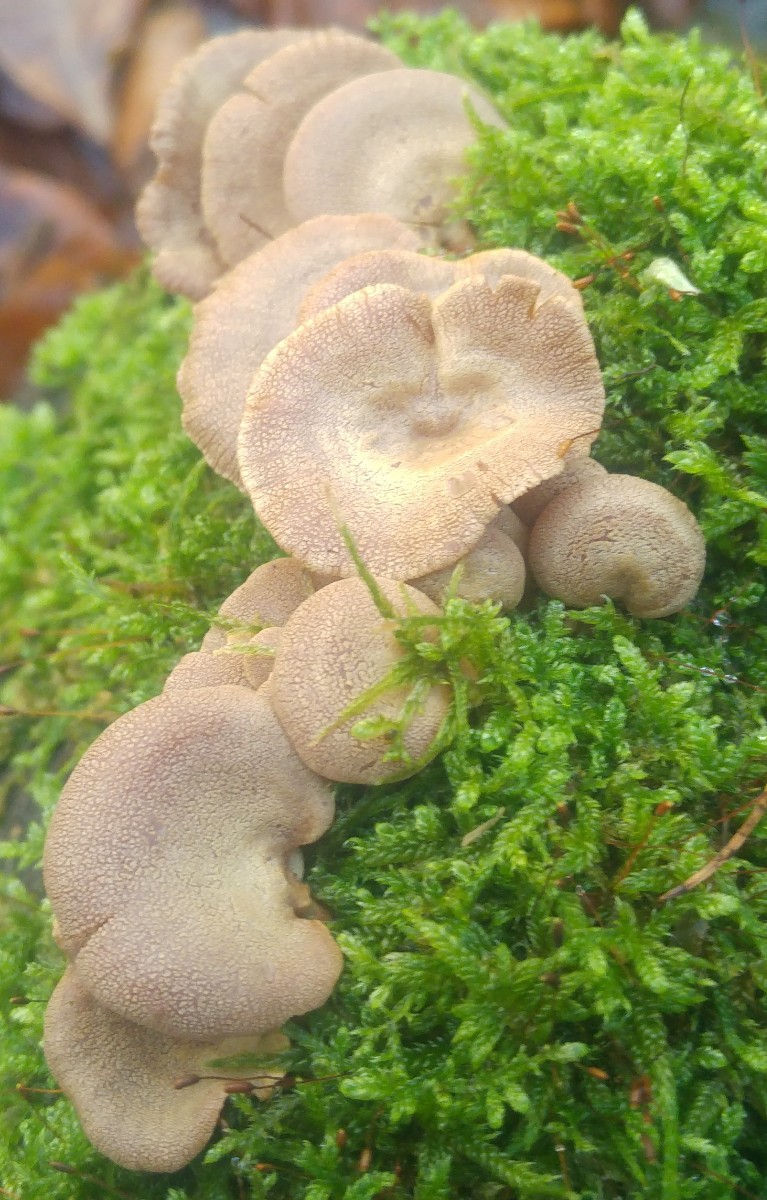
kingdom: Fungi
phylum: Basidiomycota
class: Agaricomycetes
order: Agaricales
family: Mycenaceae
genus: Panellus
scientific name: Panellus stipticus
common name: kliddet epaulethat
